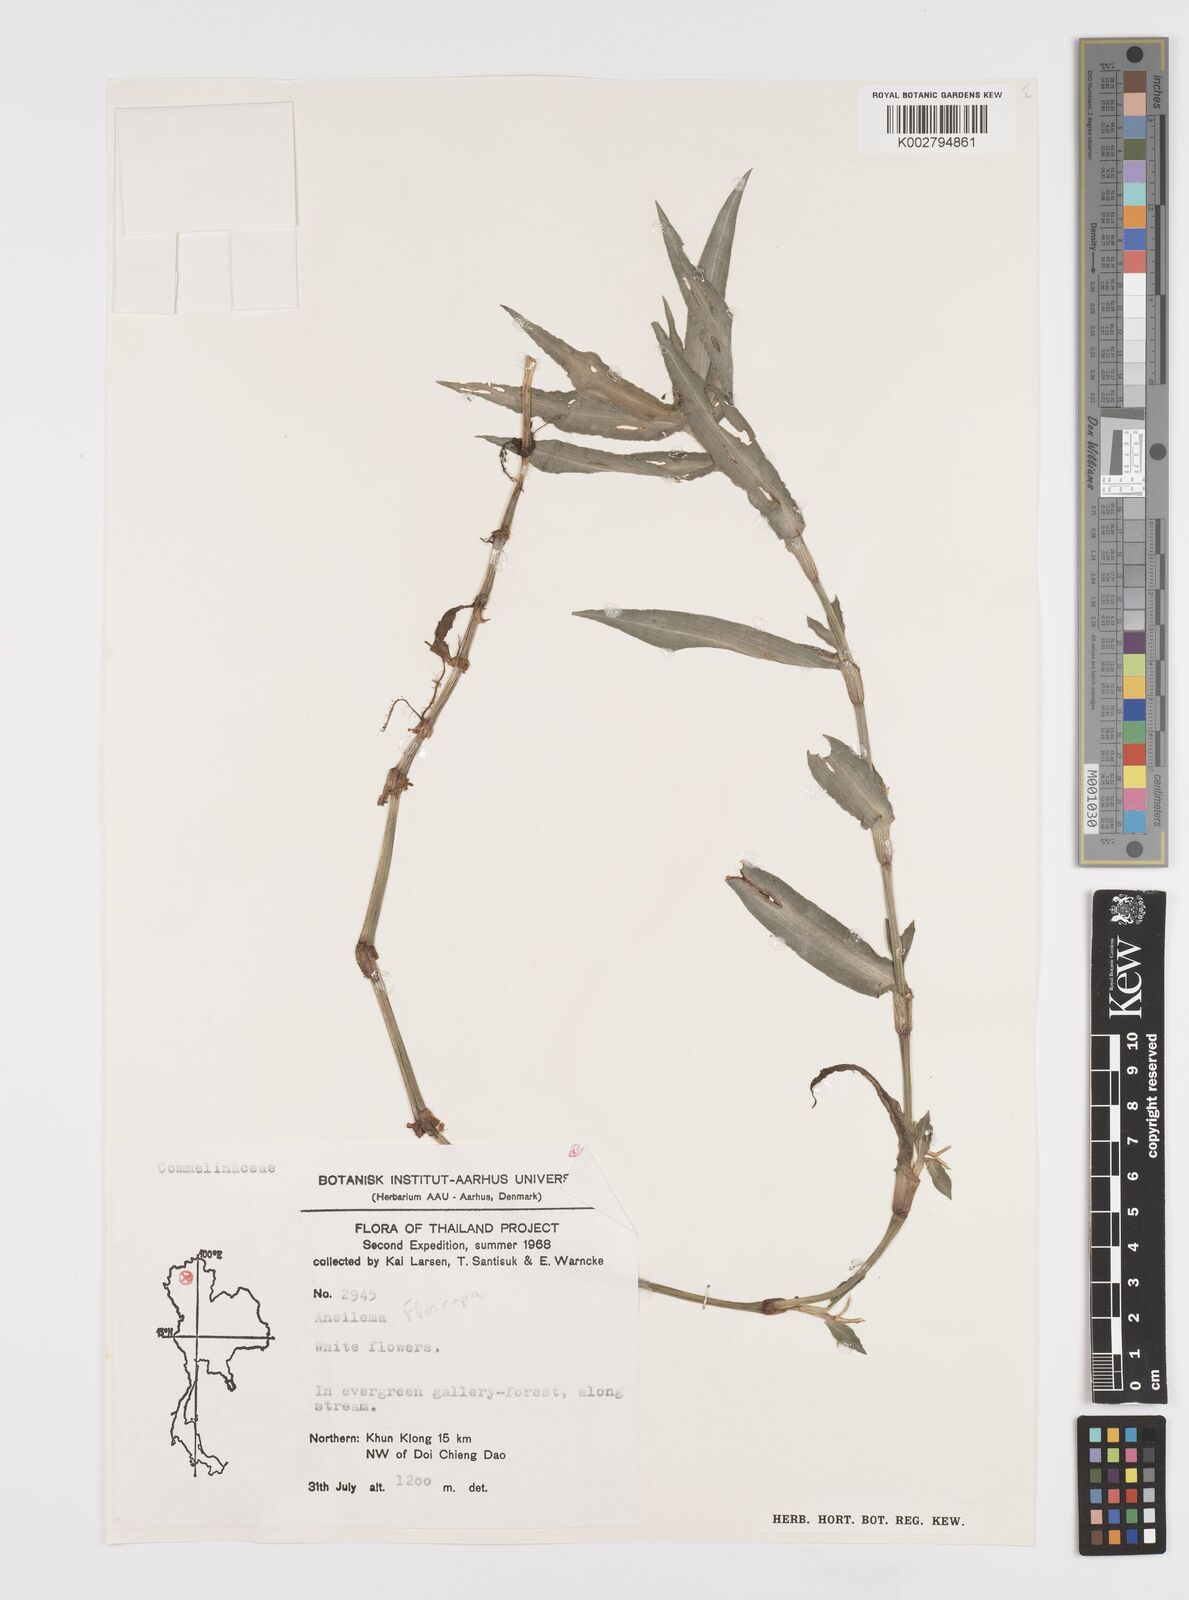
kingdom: Plantae
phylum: Tracheophyta
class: Liliopsida
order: Commelinales
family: Commelinaceae
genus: Floscopa
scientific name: Floscopa
